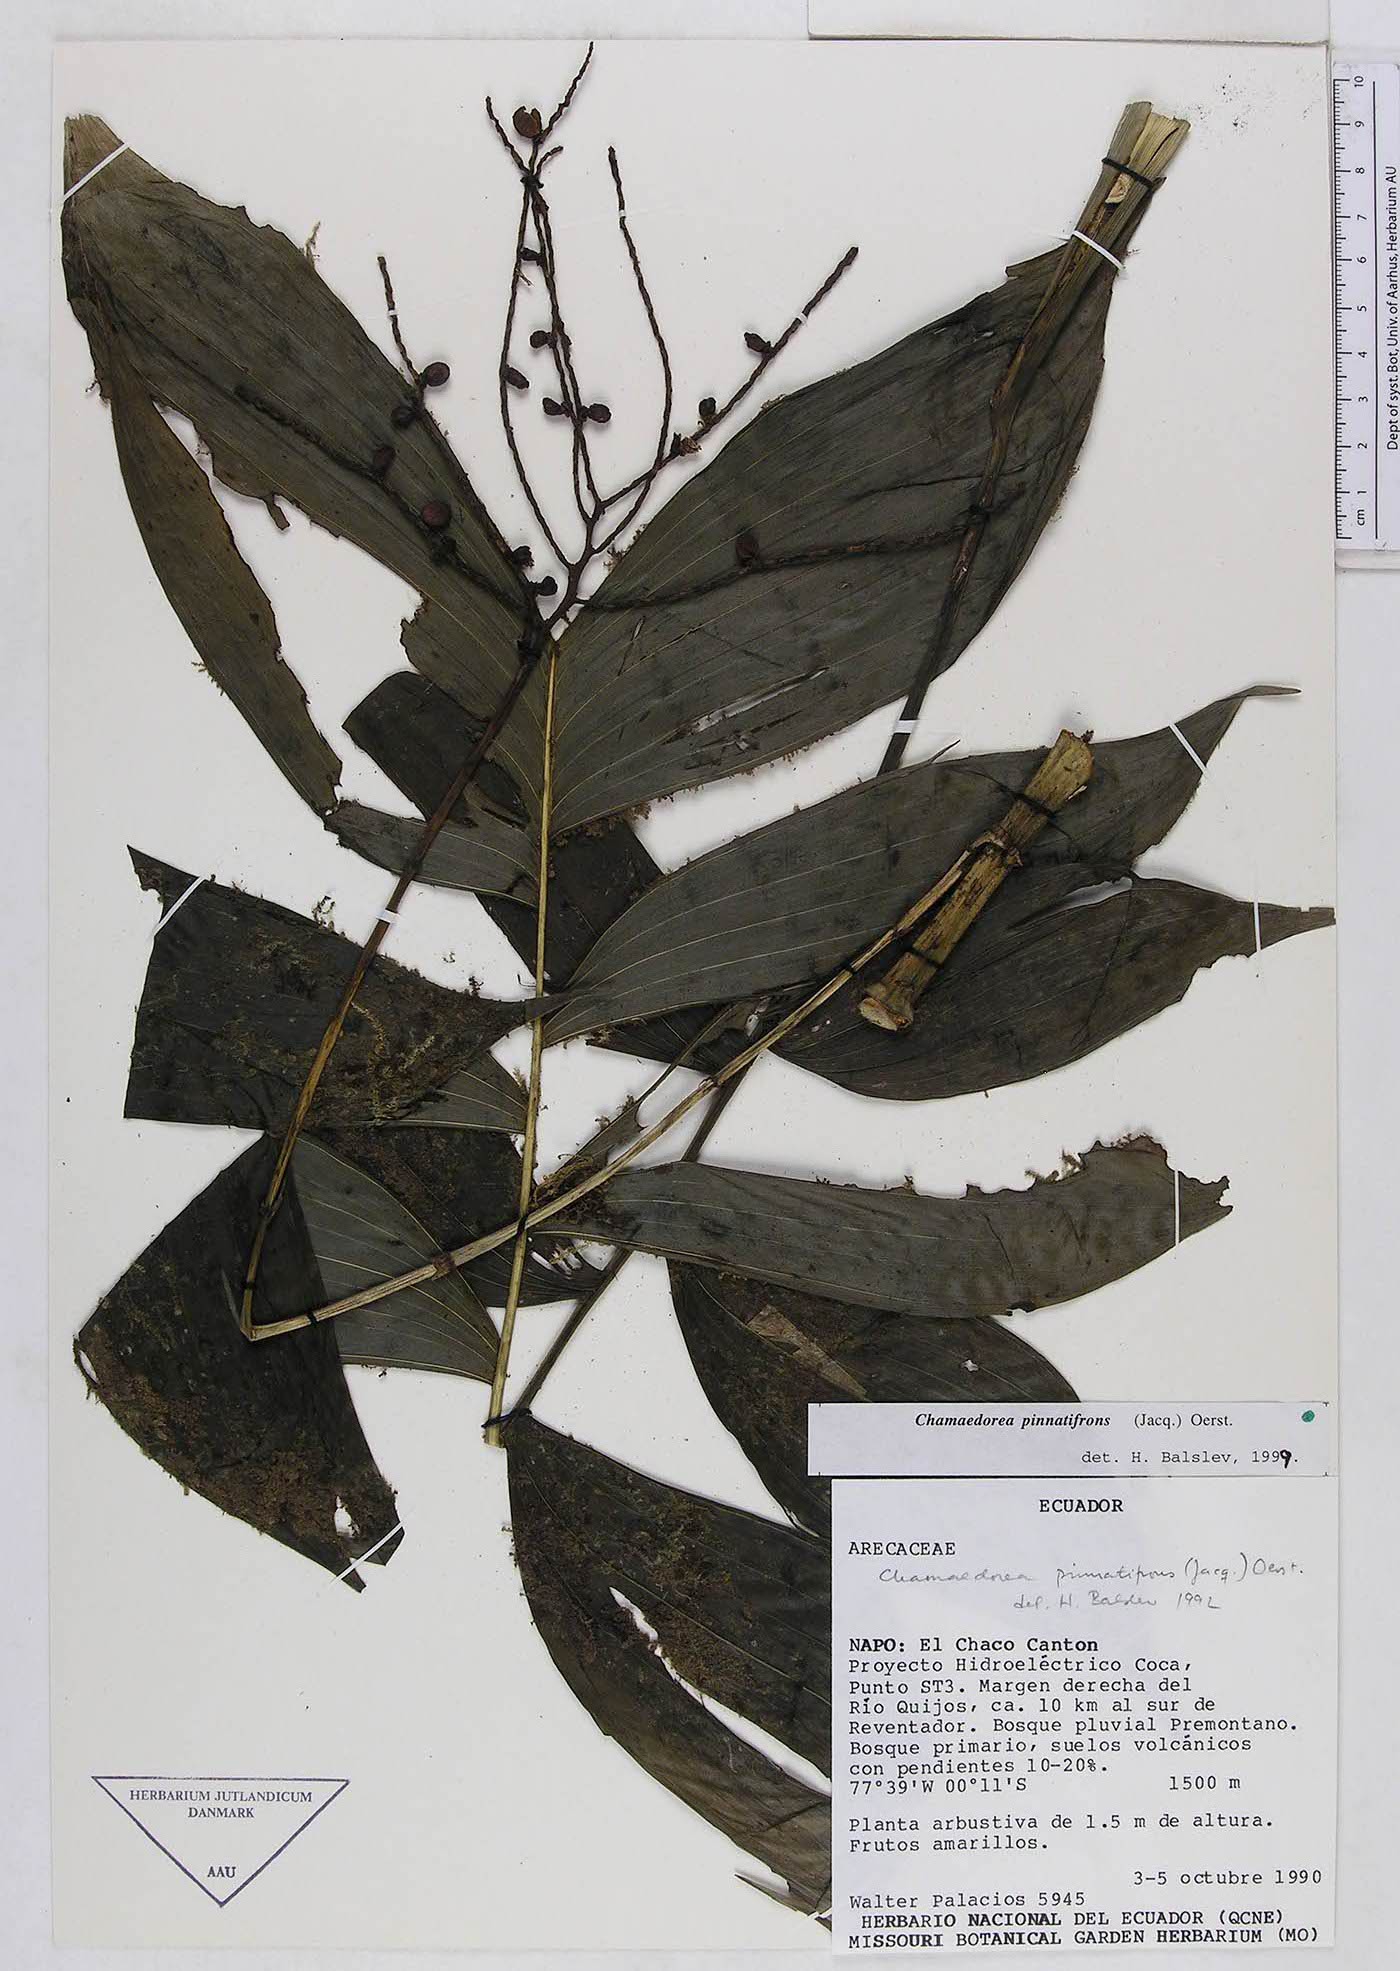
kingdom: Plantae
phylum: Tracheophyta
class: Liliopsida
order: Arecales
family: Arecaceae
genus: Chamaedorea
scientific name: Chamaedorea pinnatifrons
